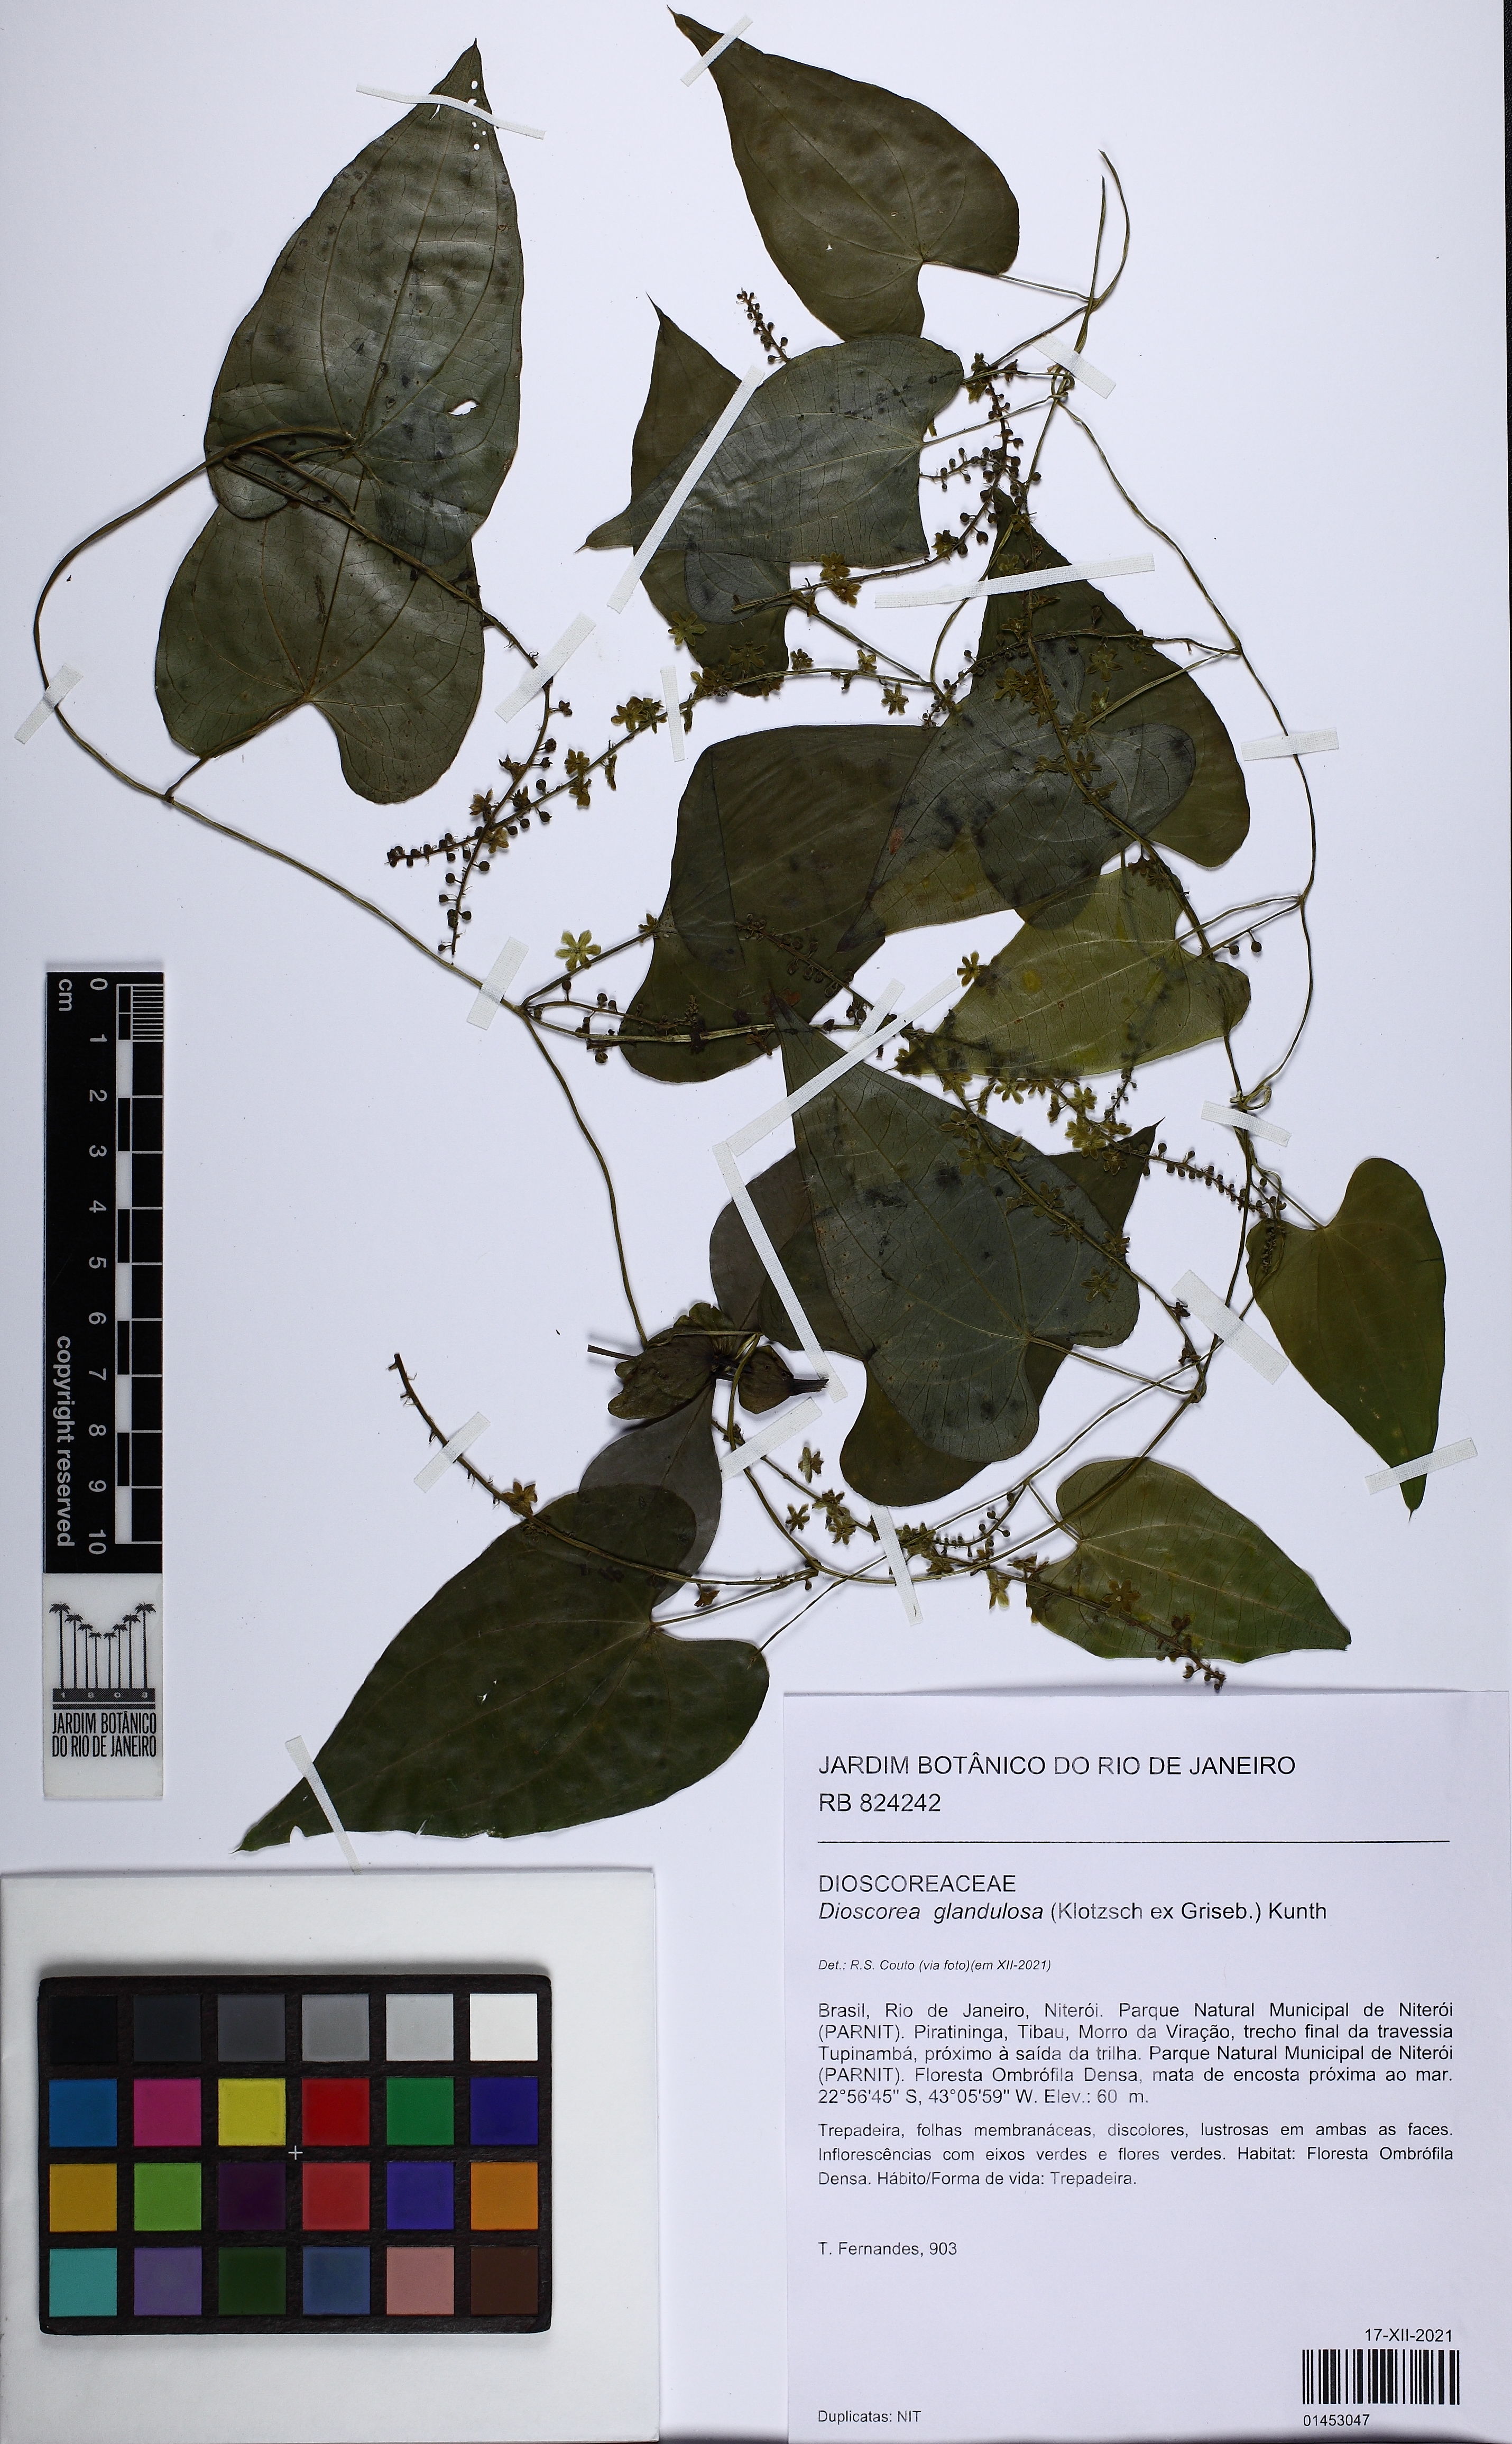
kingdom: Plantae
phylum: Tracheophyta
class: Liliopsida
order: Dioscoreales
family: Dioscoreaceae
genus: Dioscorea
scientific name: Dioscorea glandulosa
